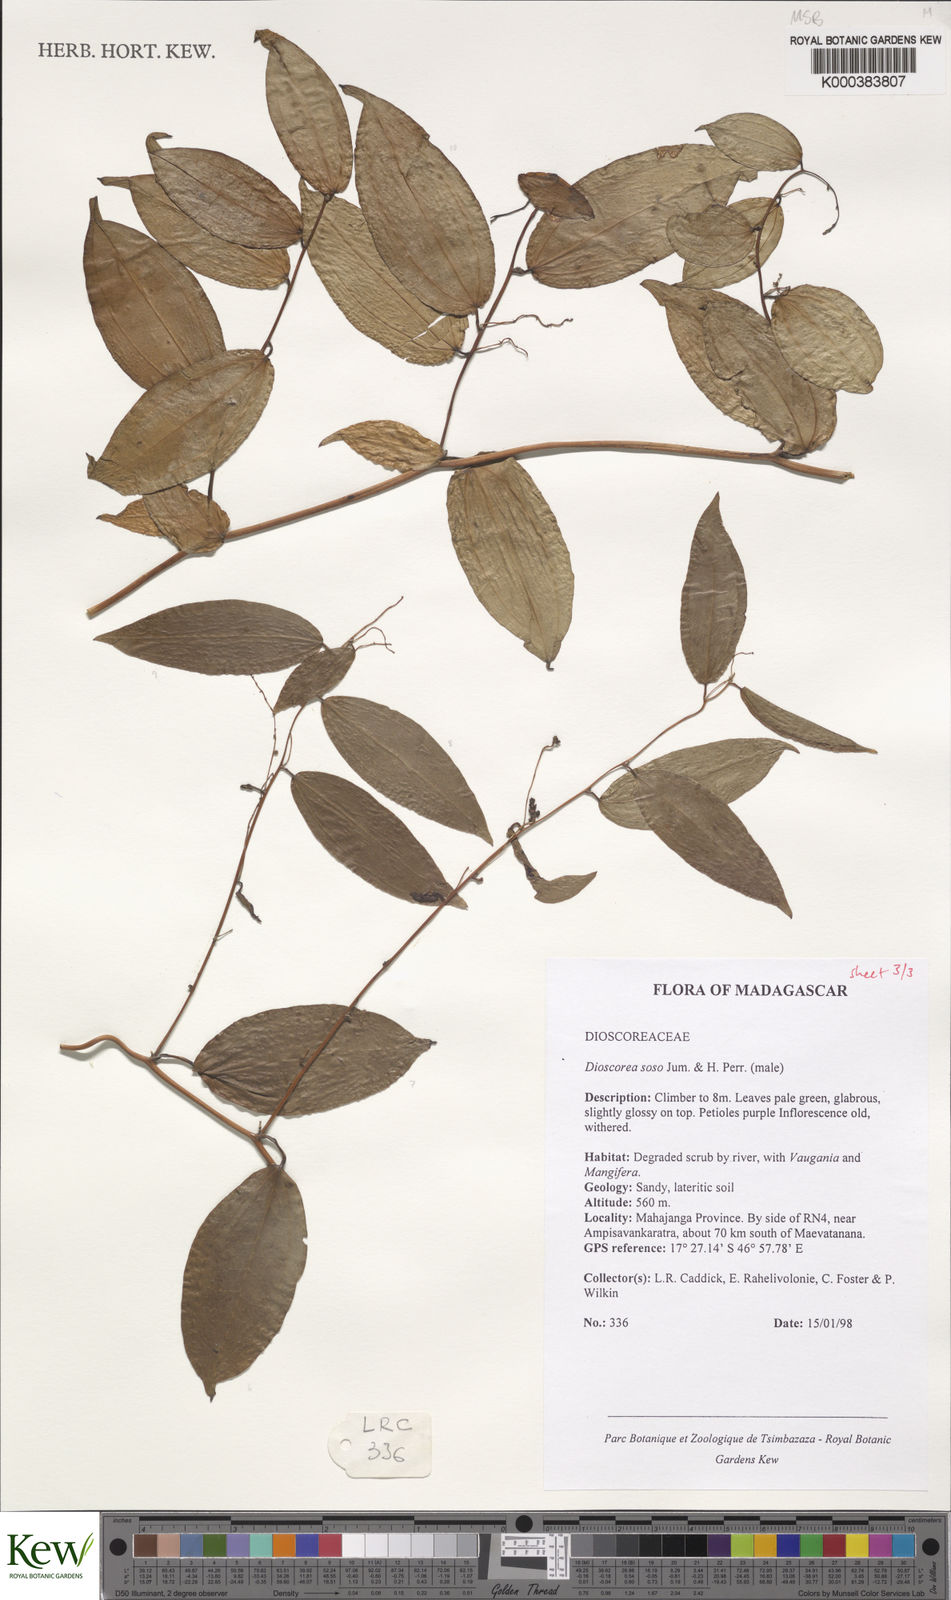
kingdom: Plantae
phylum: Tracheophyta
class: Liliopsida
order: Dioscoreales
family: Dioscoreaceae
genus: Dioscorea
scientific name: Dioscorea
